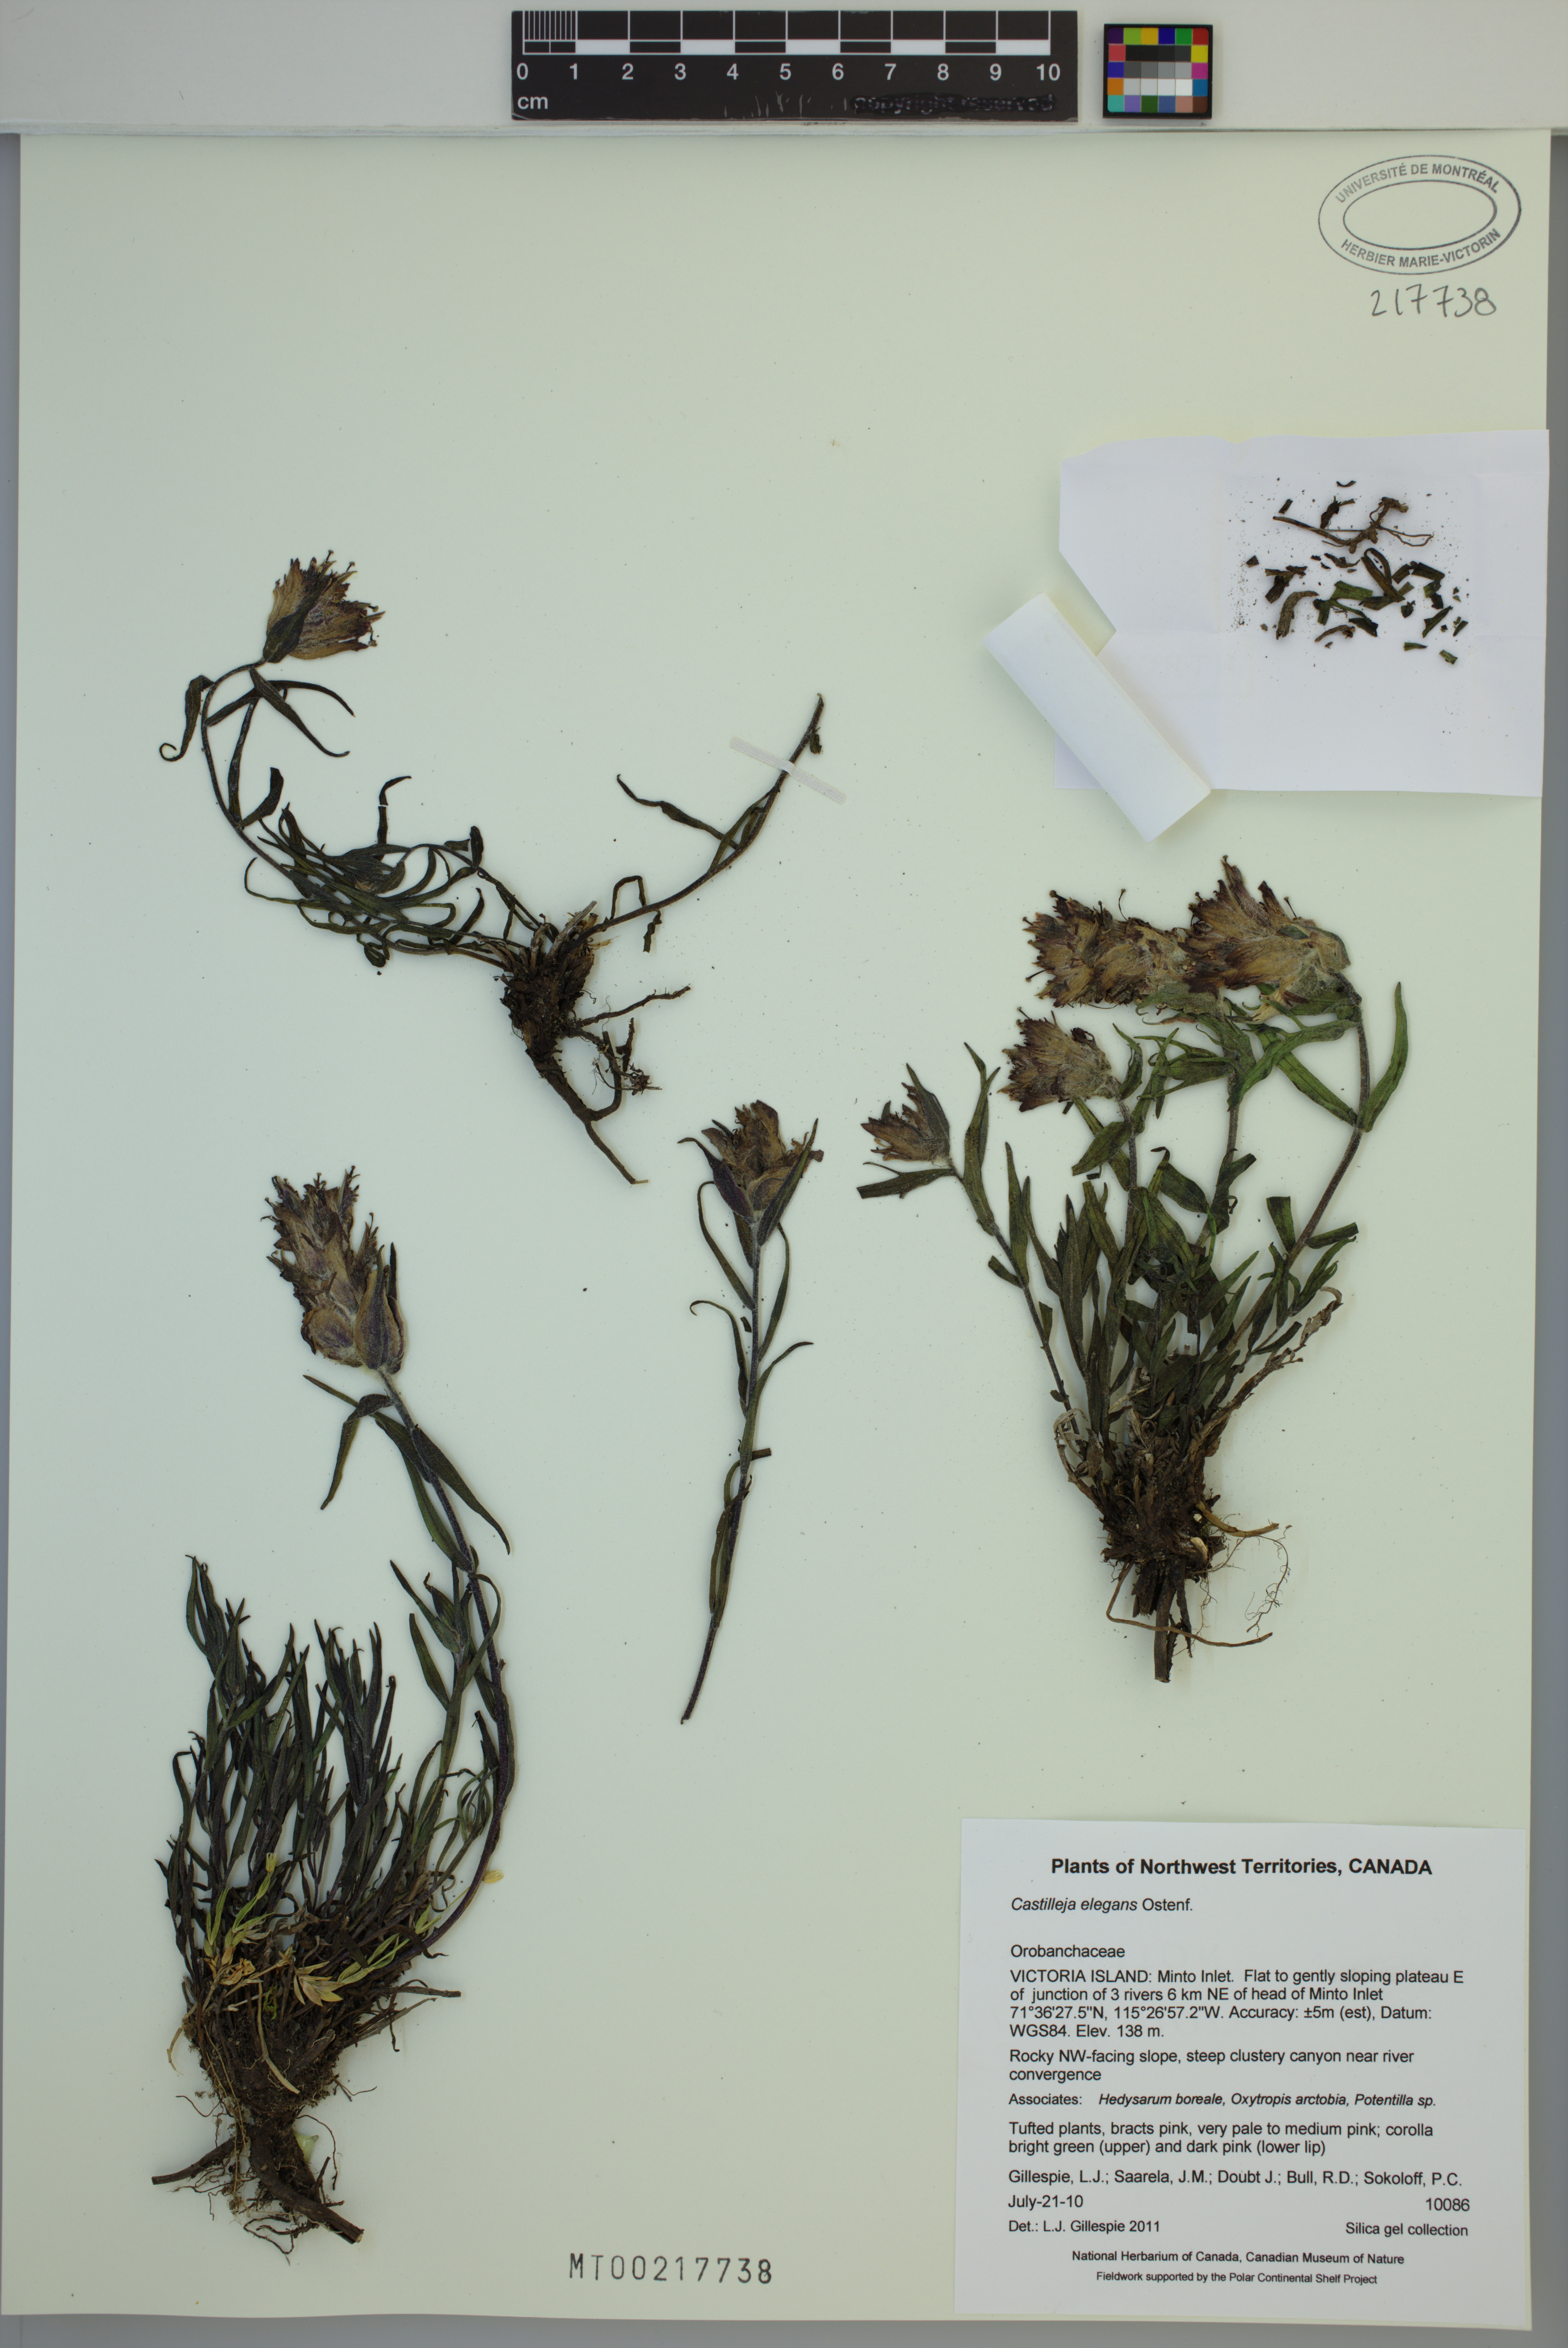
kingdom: Plantae
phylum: Tracheophyta
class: Magnoliopsida
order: Lamiales
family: Orobanchaceae
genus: Castilleja
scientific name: Castilleja elegans
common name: Elegant paintbrush
